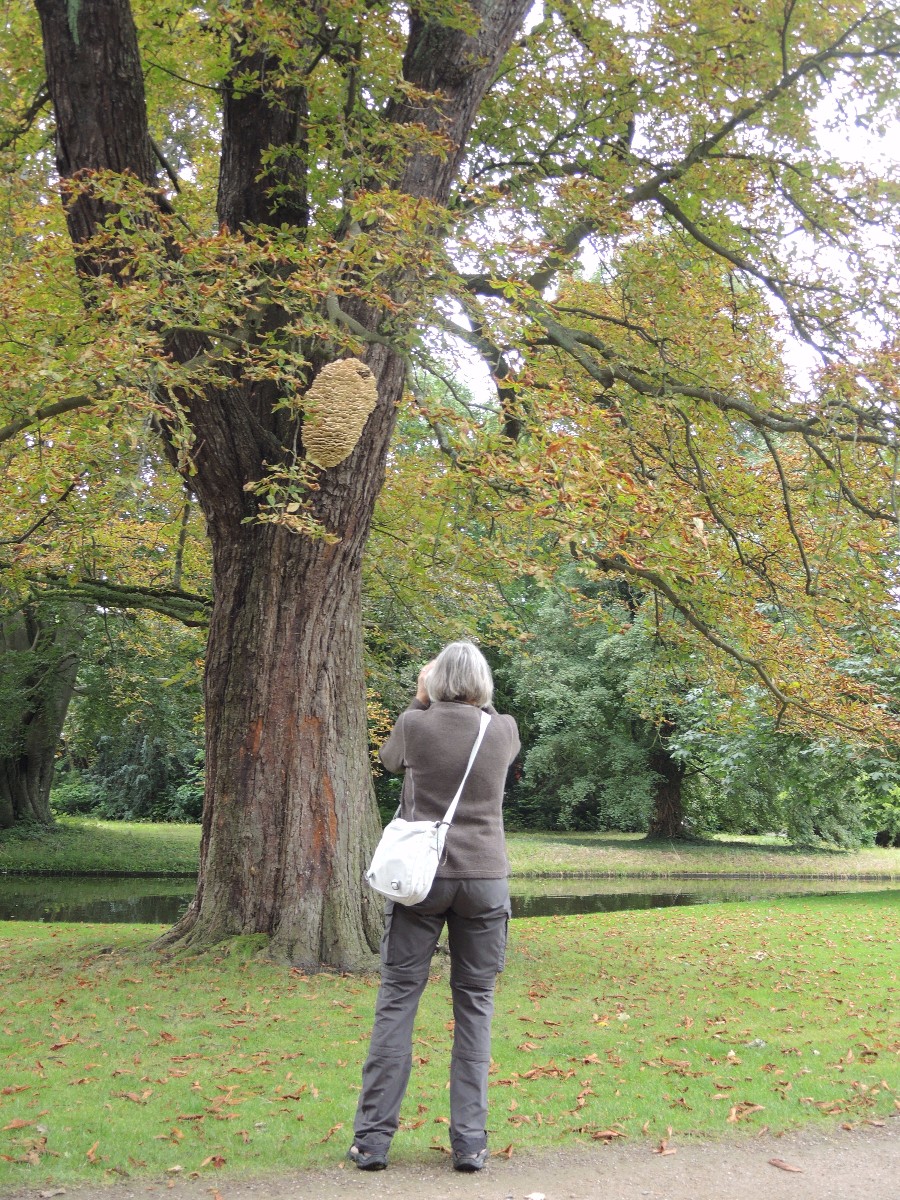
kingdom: Fungi
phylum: Basidiomycota
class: Agaricomycetes
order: Polyporales
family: Meruliaceae
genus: Climacodon
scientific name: Climacodon septentrionalis
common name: kæmpepigsvamp
